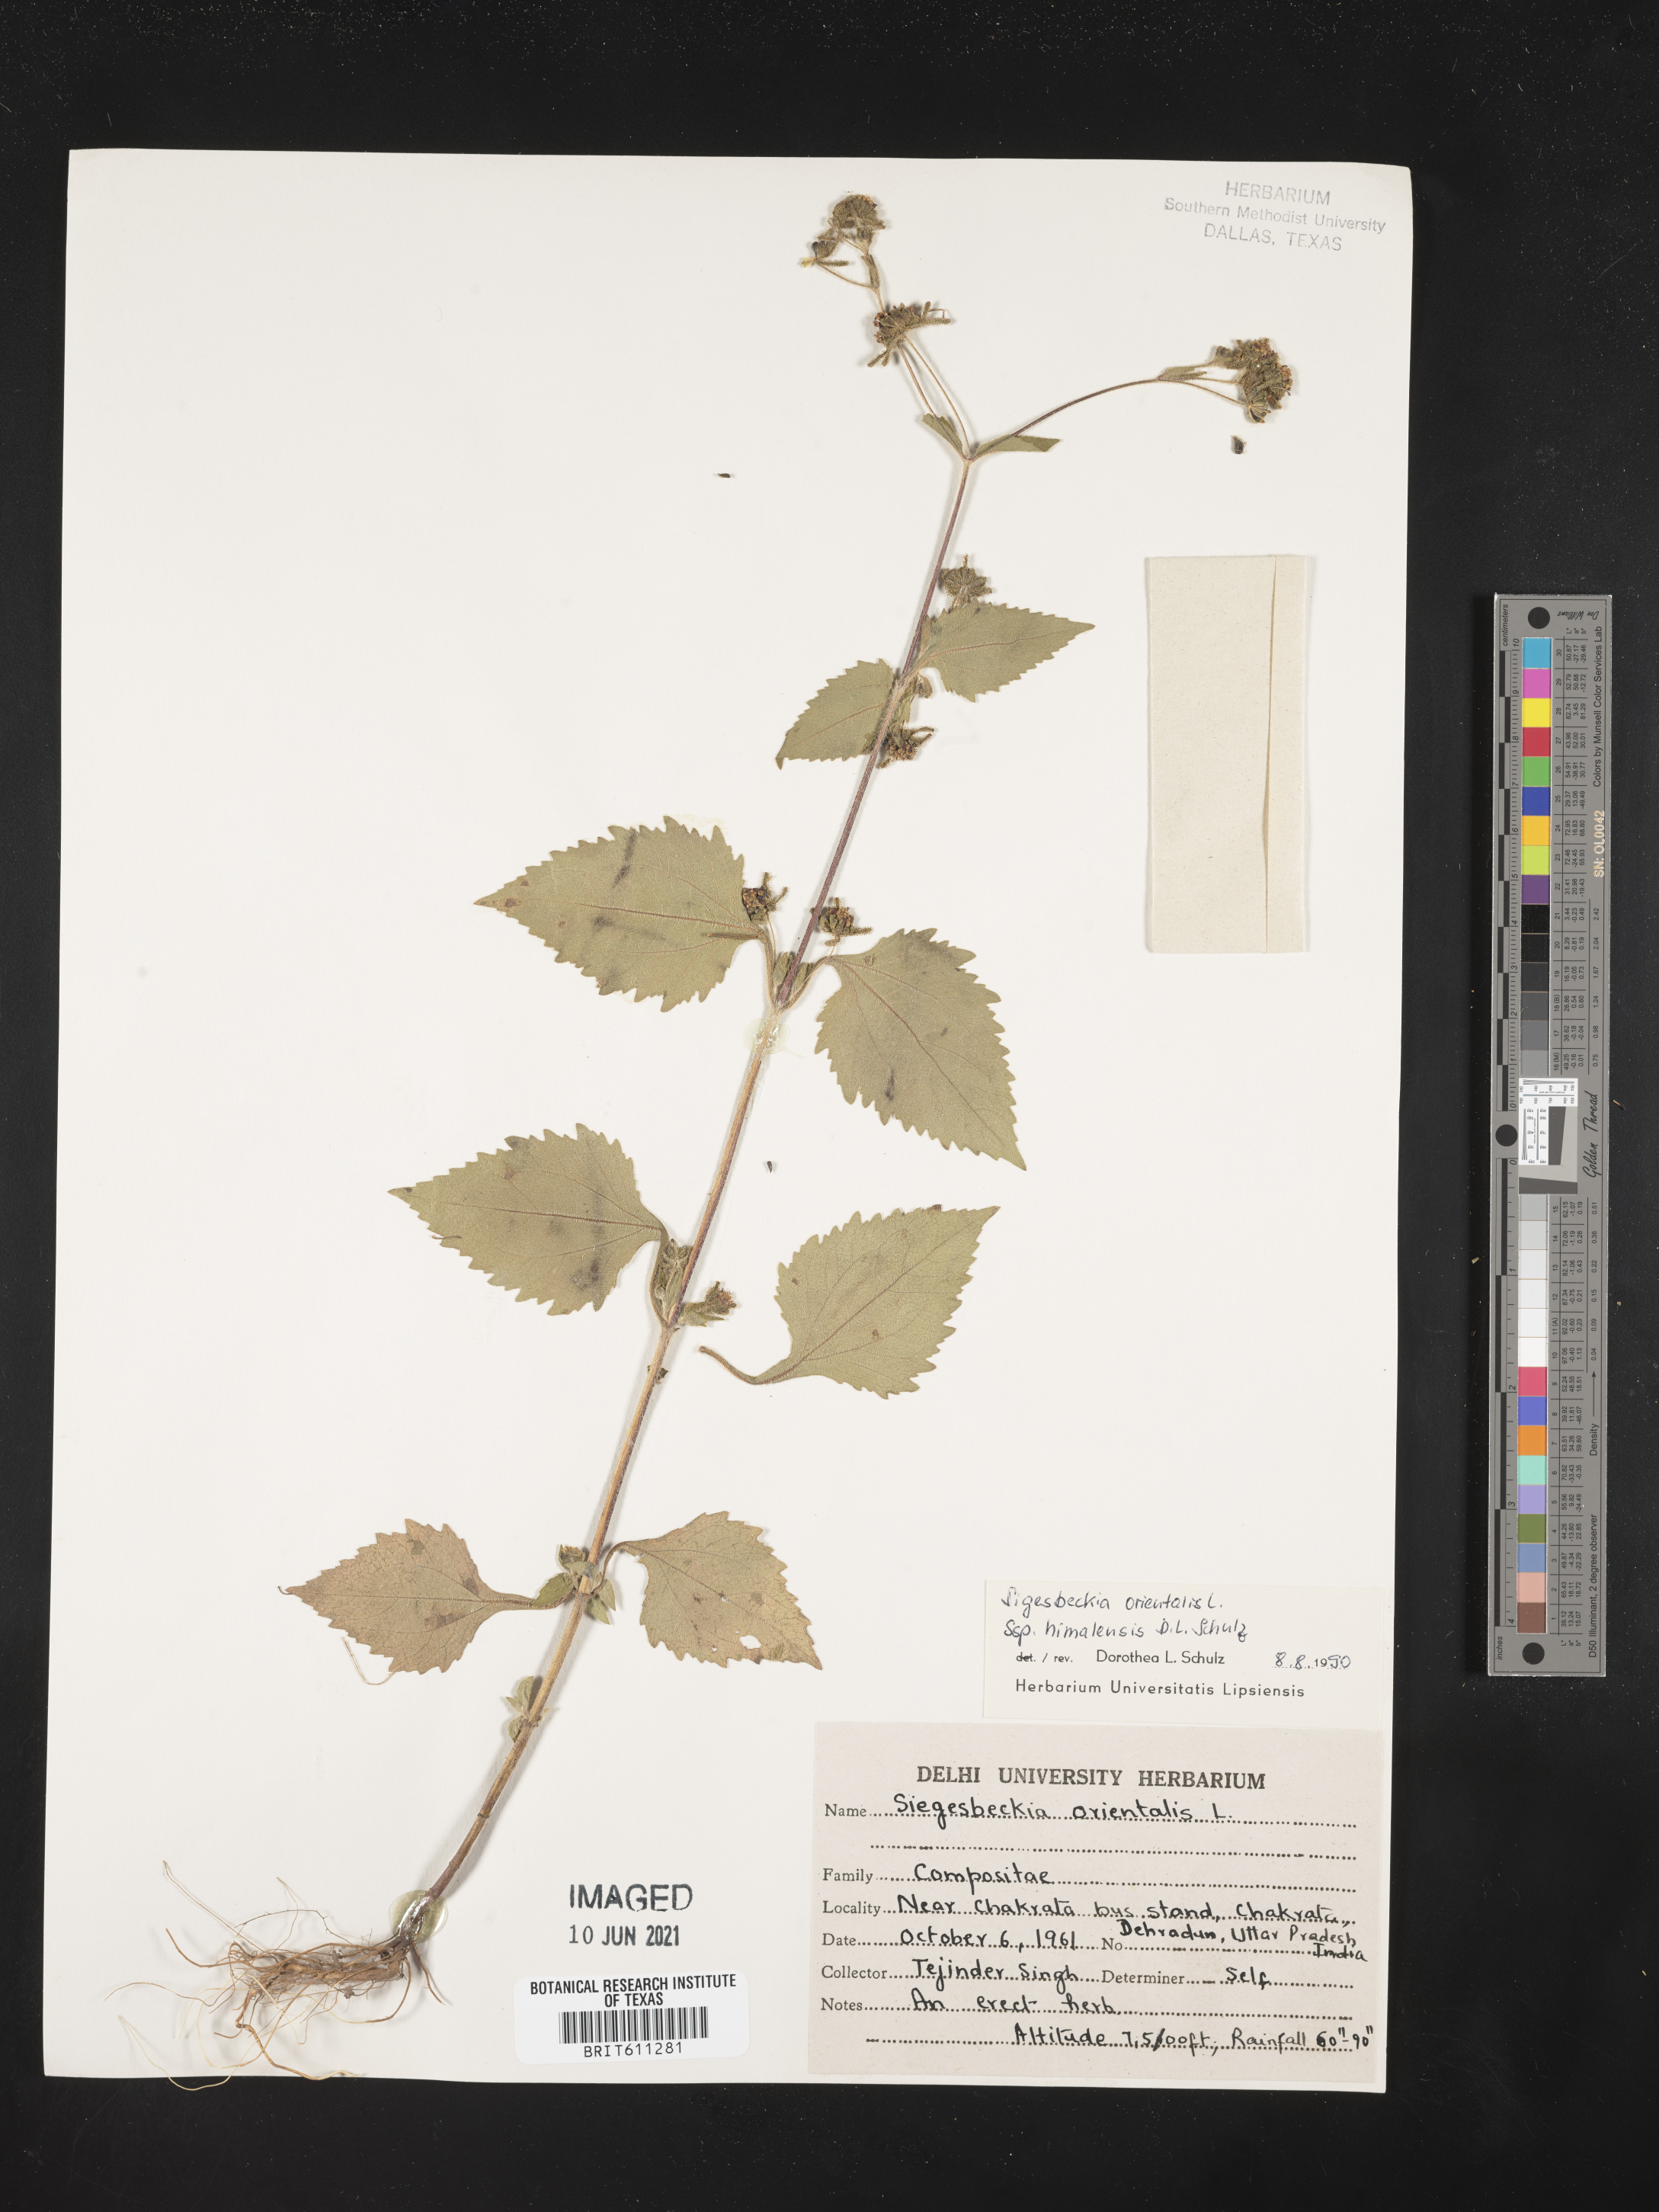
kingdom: Plantae
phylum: Tracheophyta
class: Magnoliopsida
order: Asterales
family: Asteraceae
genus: Siegesbeckia
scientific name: Siegesbeckia
